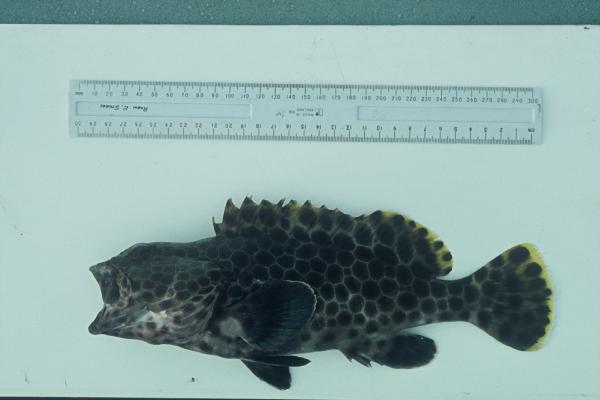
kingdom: Animalia
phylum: Chordata
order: Perciformes
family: Serranidae
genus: Epinephelus
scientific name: Epinephelus macrospilos
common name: Snubnose grouper
